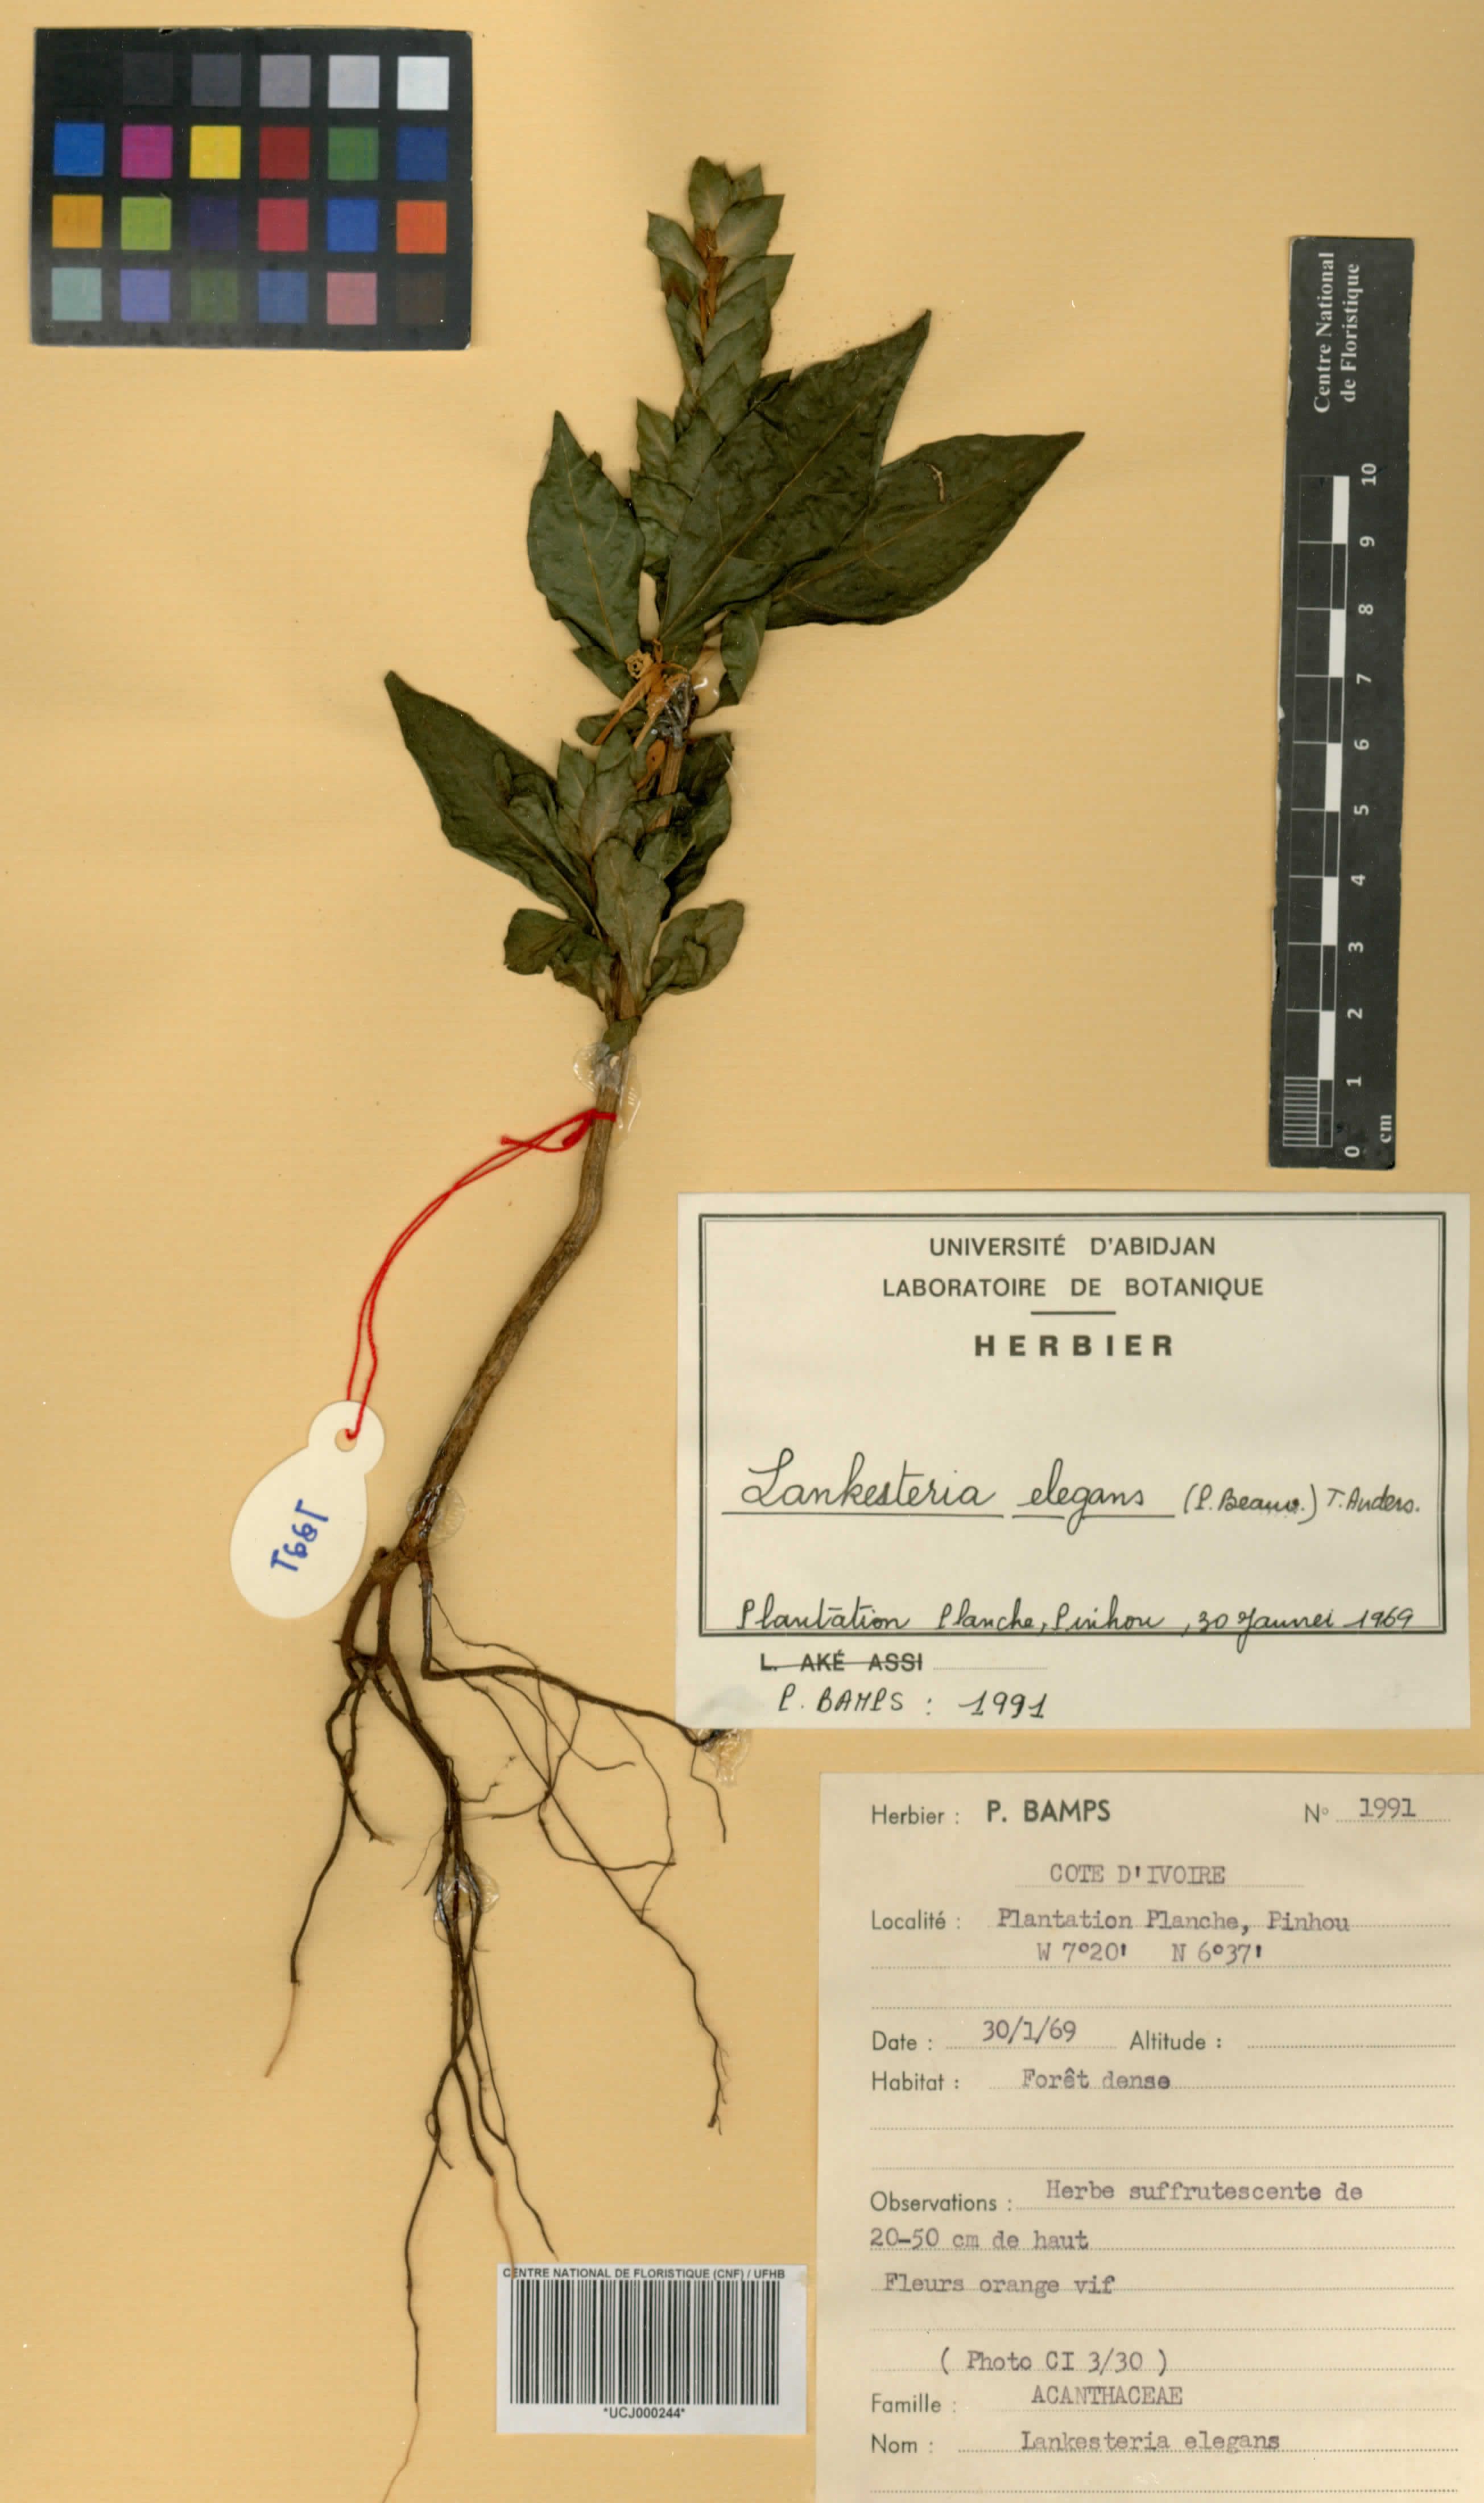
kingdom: Plantae
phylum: Tracheophyta
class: Magnoliopsida
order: Lamiales
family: Acanthaceae
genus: Lankesteria
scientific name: Lankesteria elegans
